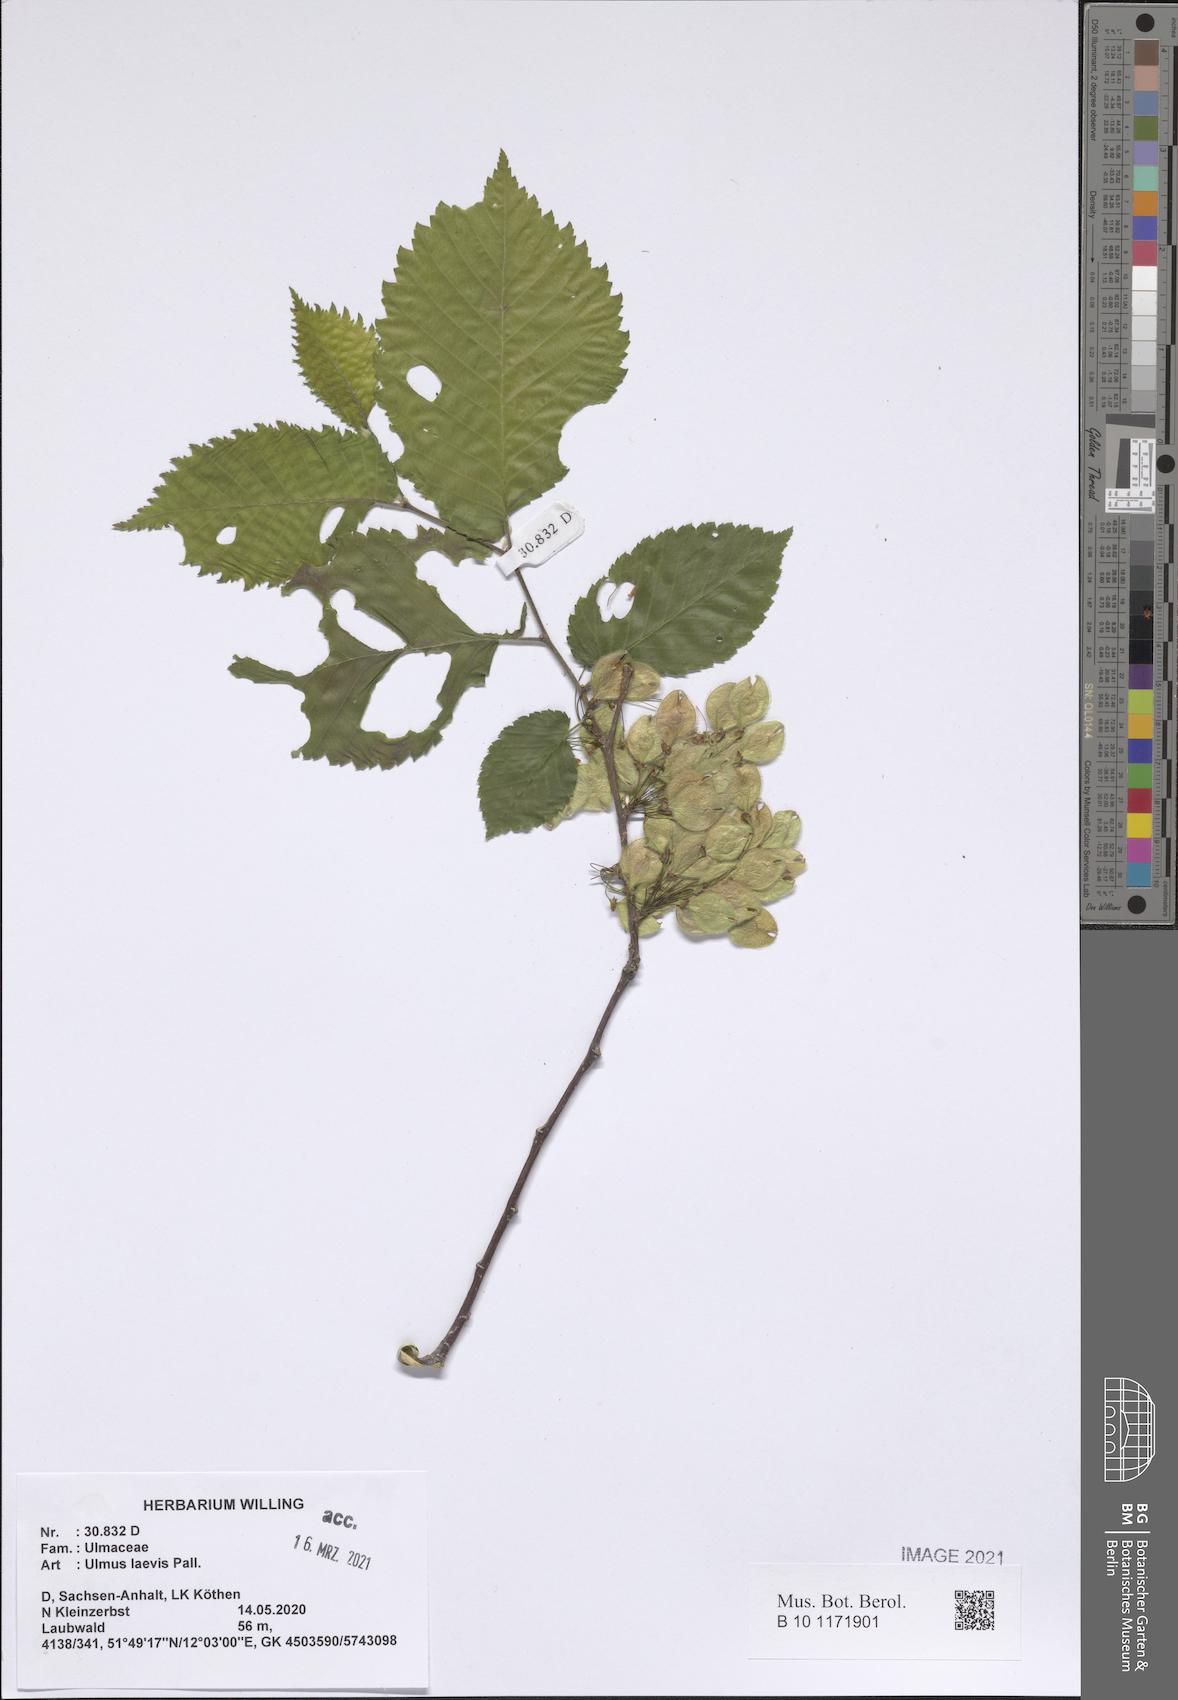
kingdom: Plantae
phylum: Tracheophyta
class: Magnoliopsida
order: Rosales
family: Ulmaceae
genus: Ulmus
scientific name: Ulmus laevis
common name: European white-elm
